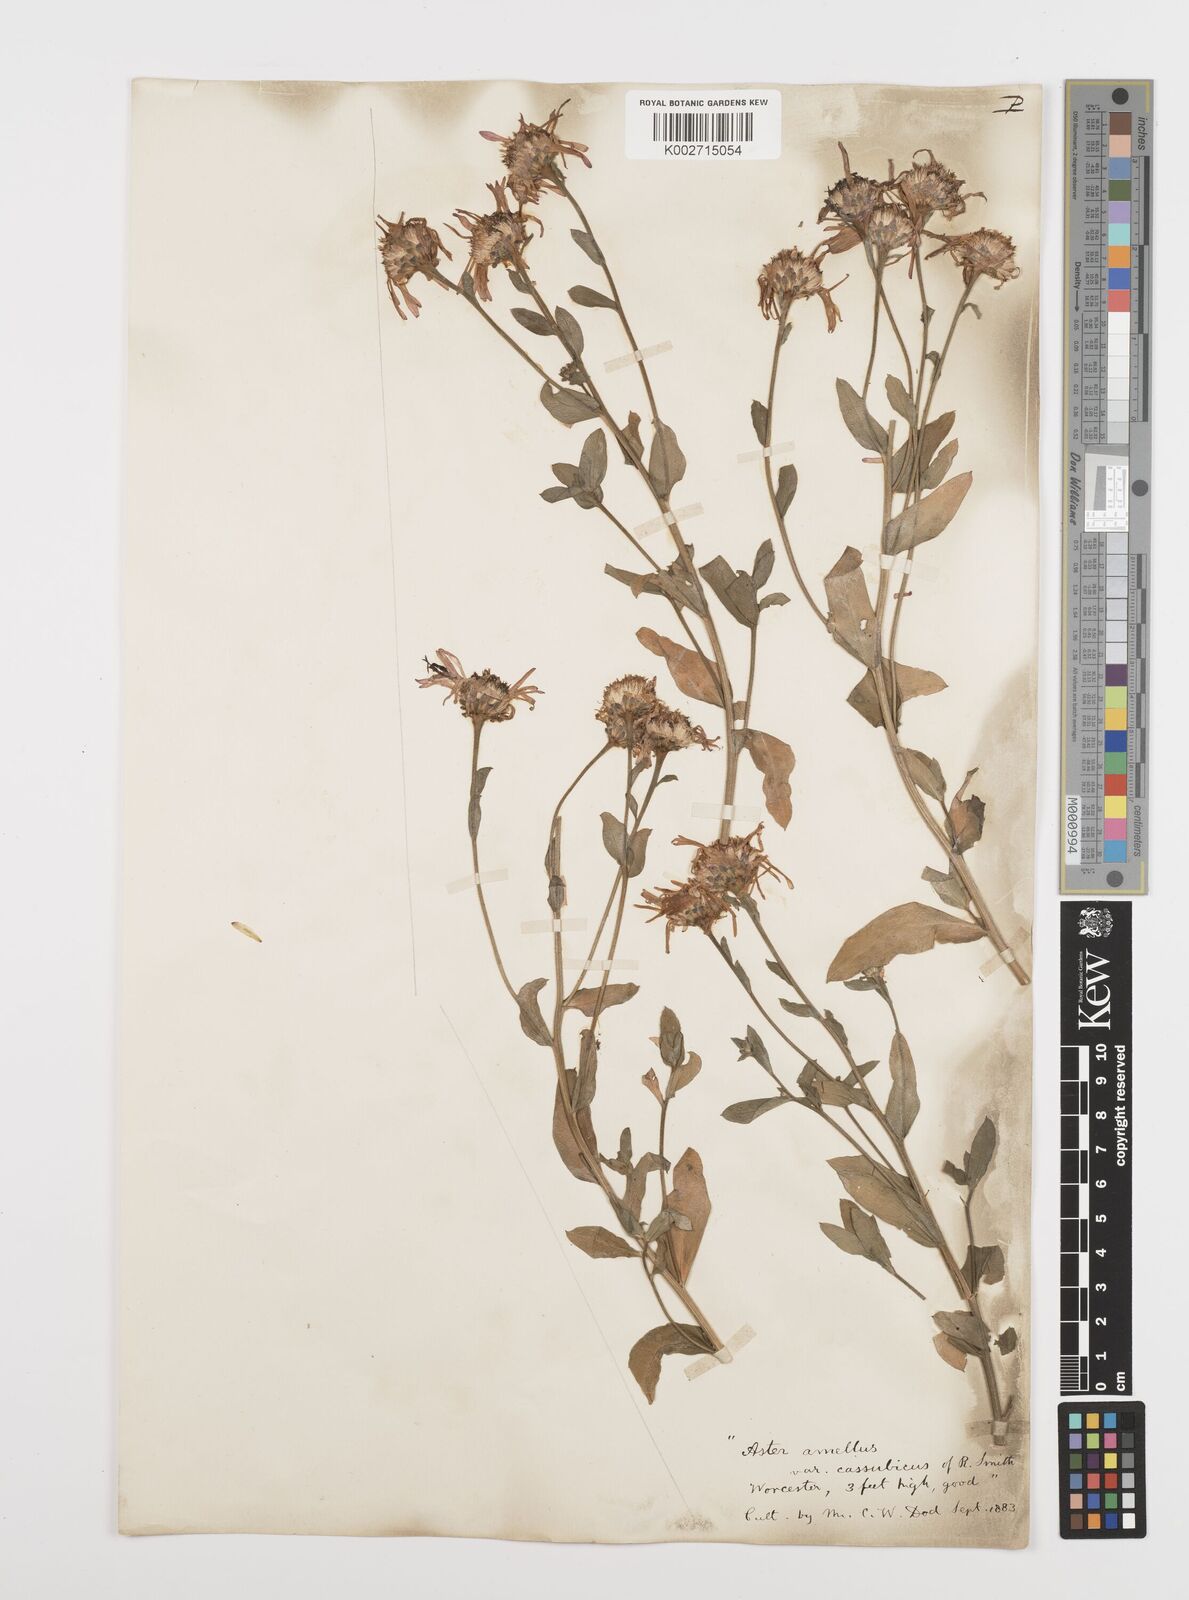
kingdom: Plantae
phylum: Tracheophyta
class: Magnoliopsida
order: Asterales
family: Asteraceae
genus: Aster
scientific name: Aster amellus
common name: European michaelmas daisy
